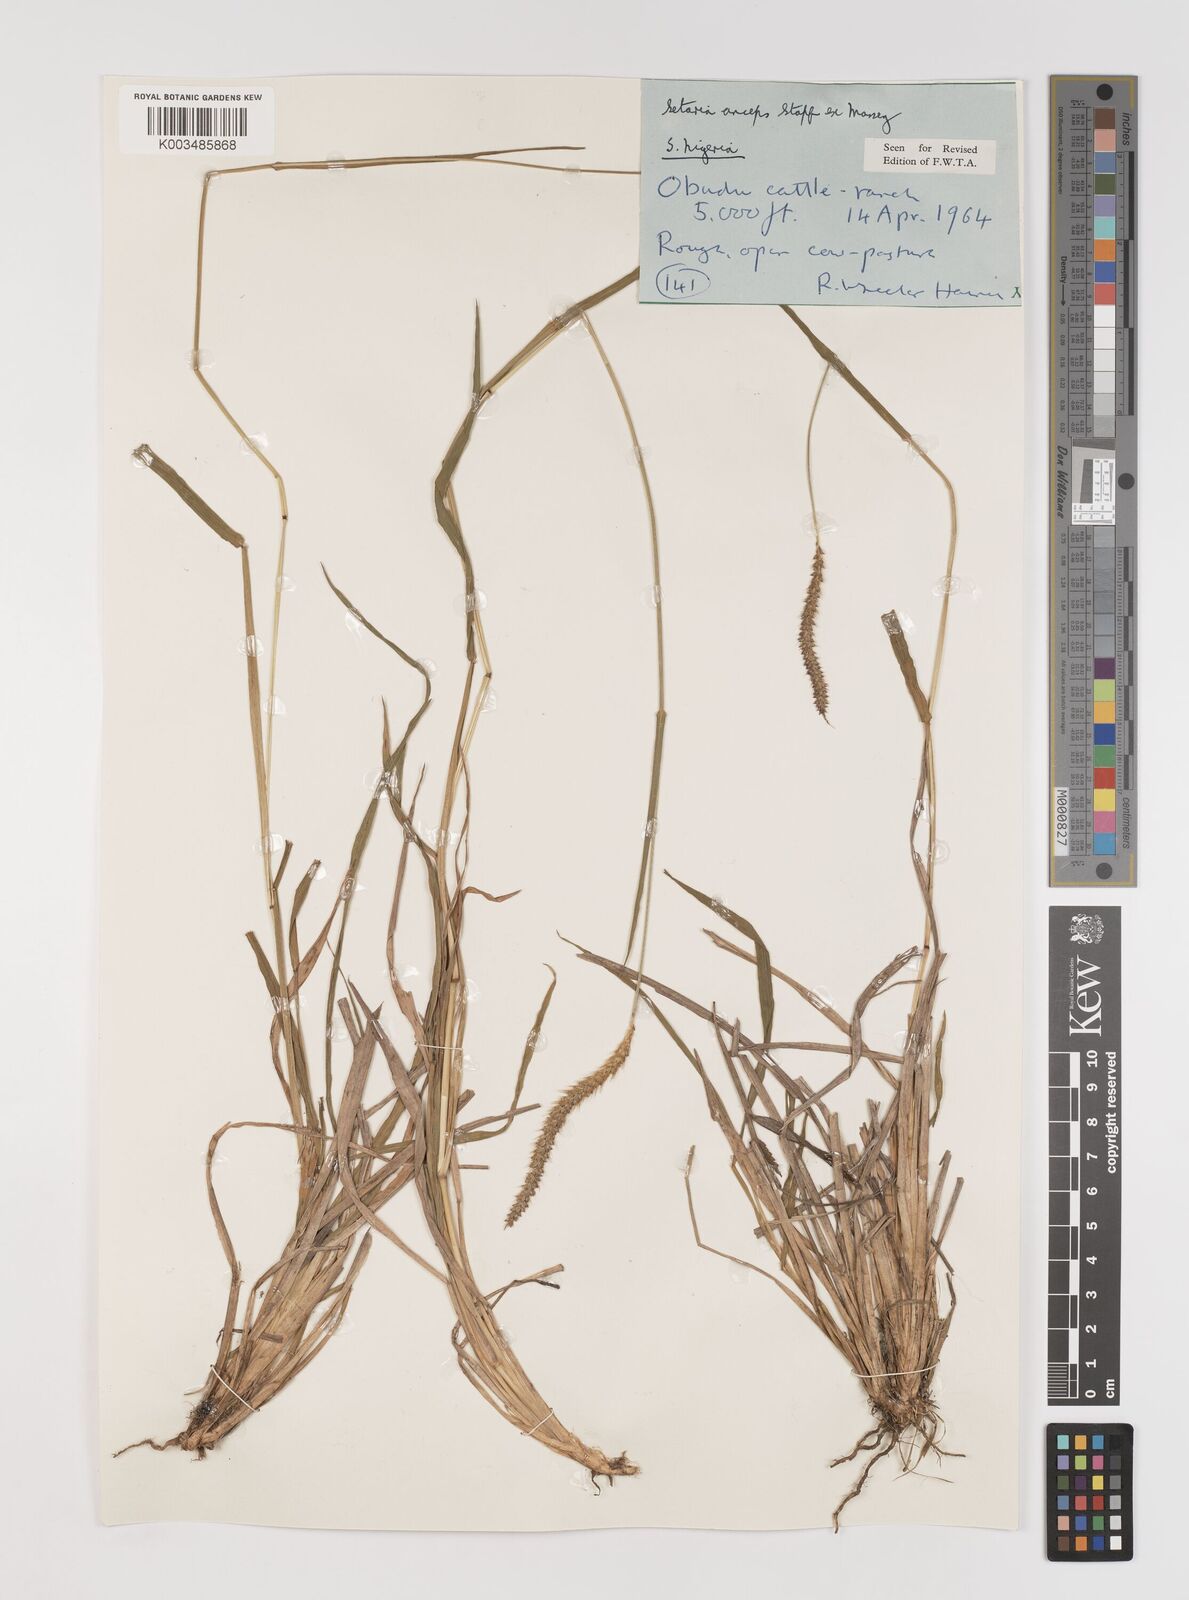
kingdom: Plantae
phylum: Tracheophyta
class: Liliopsida
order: Poales
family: Poaceae
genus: Setaria
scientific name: Setaria sphacelata
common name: African bristlegrass
